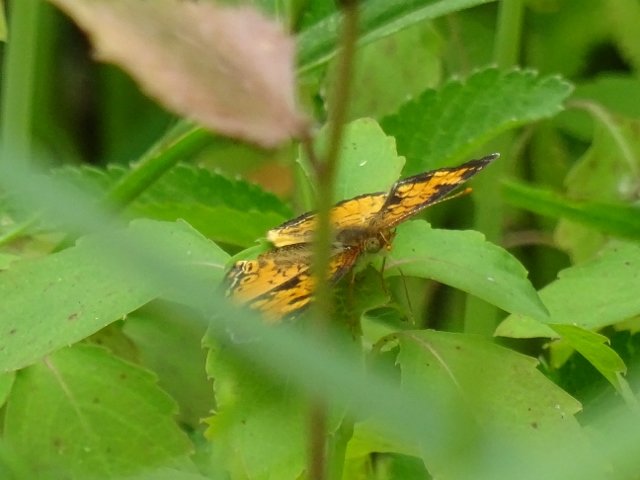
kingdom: Animalia
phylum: Arthropoda
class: Insecta
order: Lepidoptera
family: Nymphalidae
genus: Phyciodes
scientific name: Phyciodes tharos
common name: Northern Crescent
